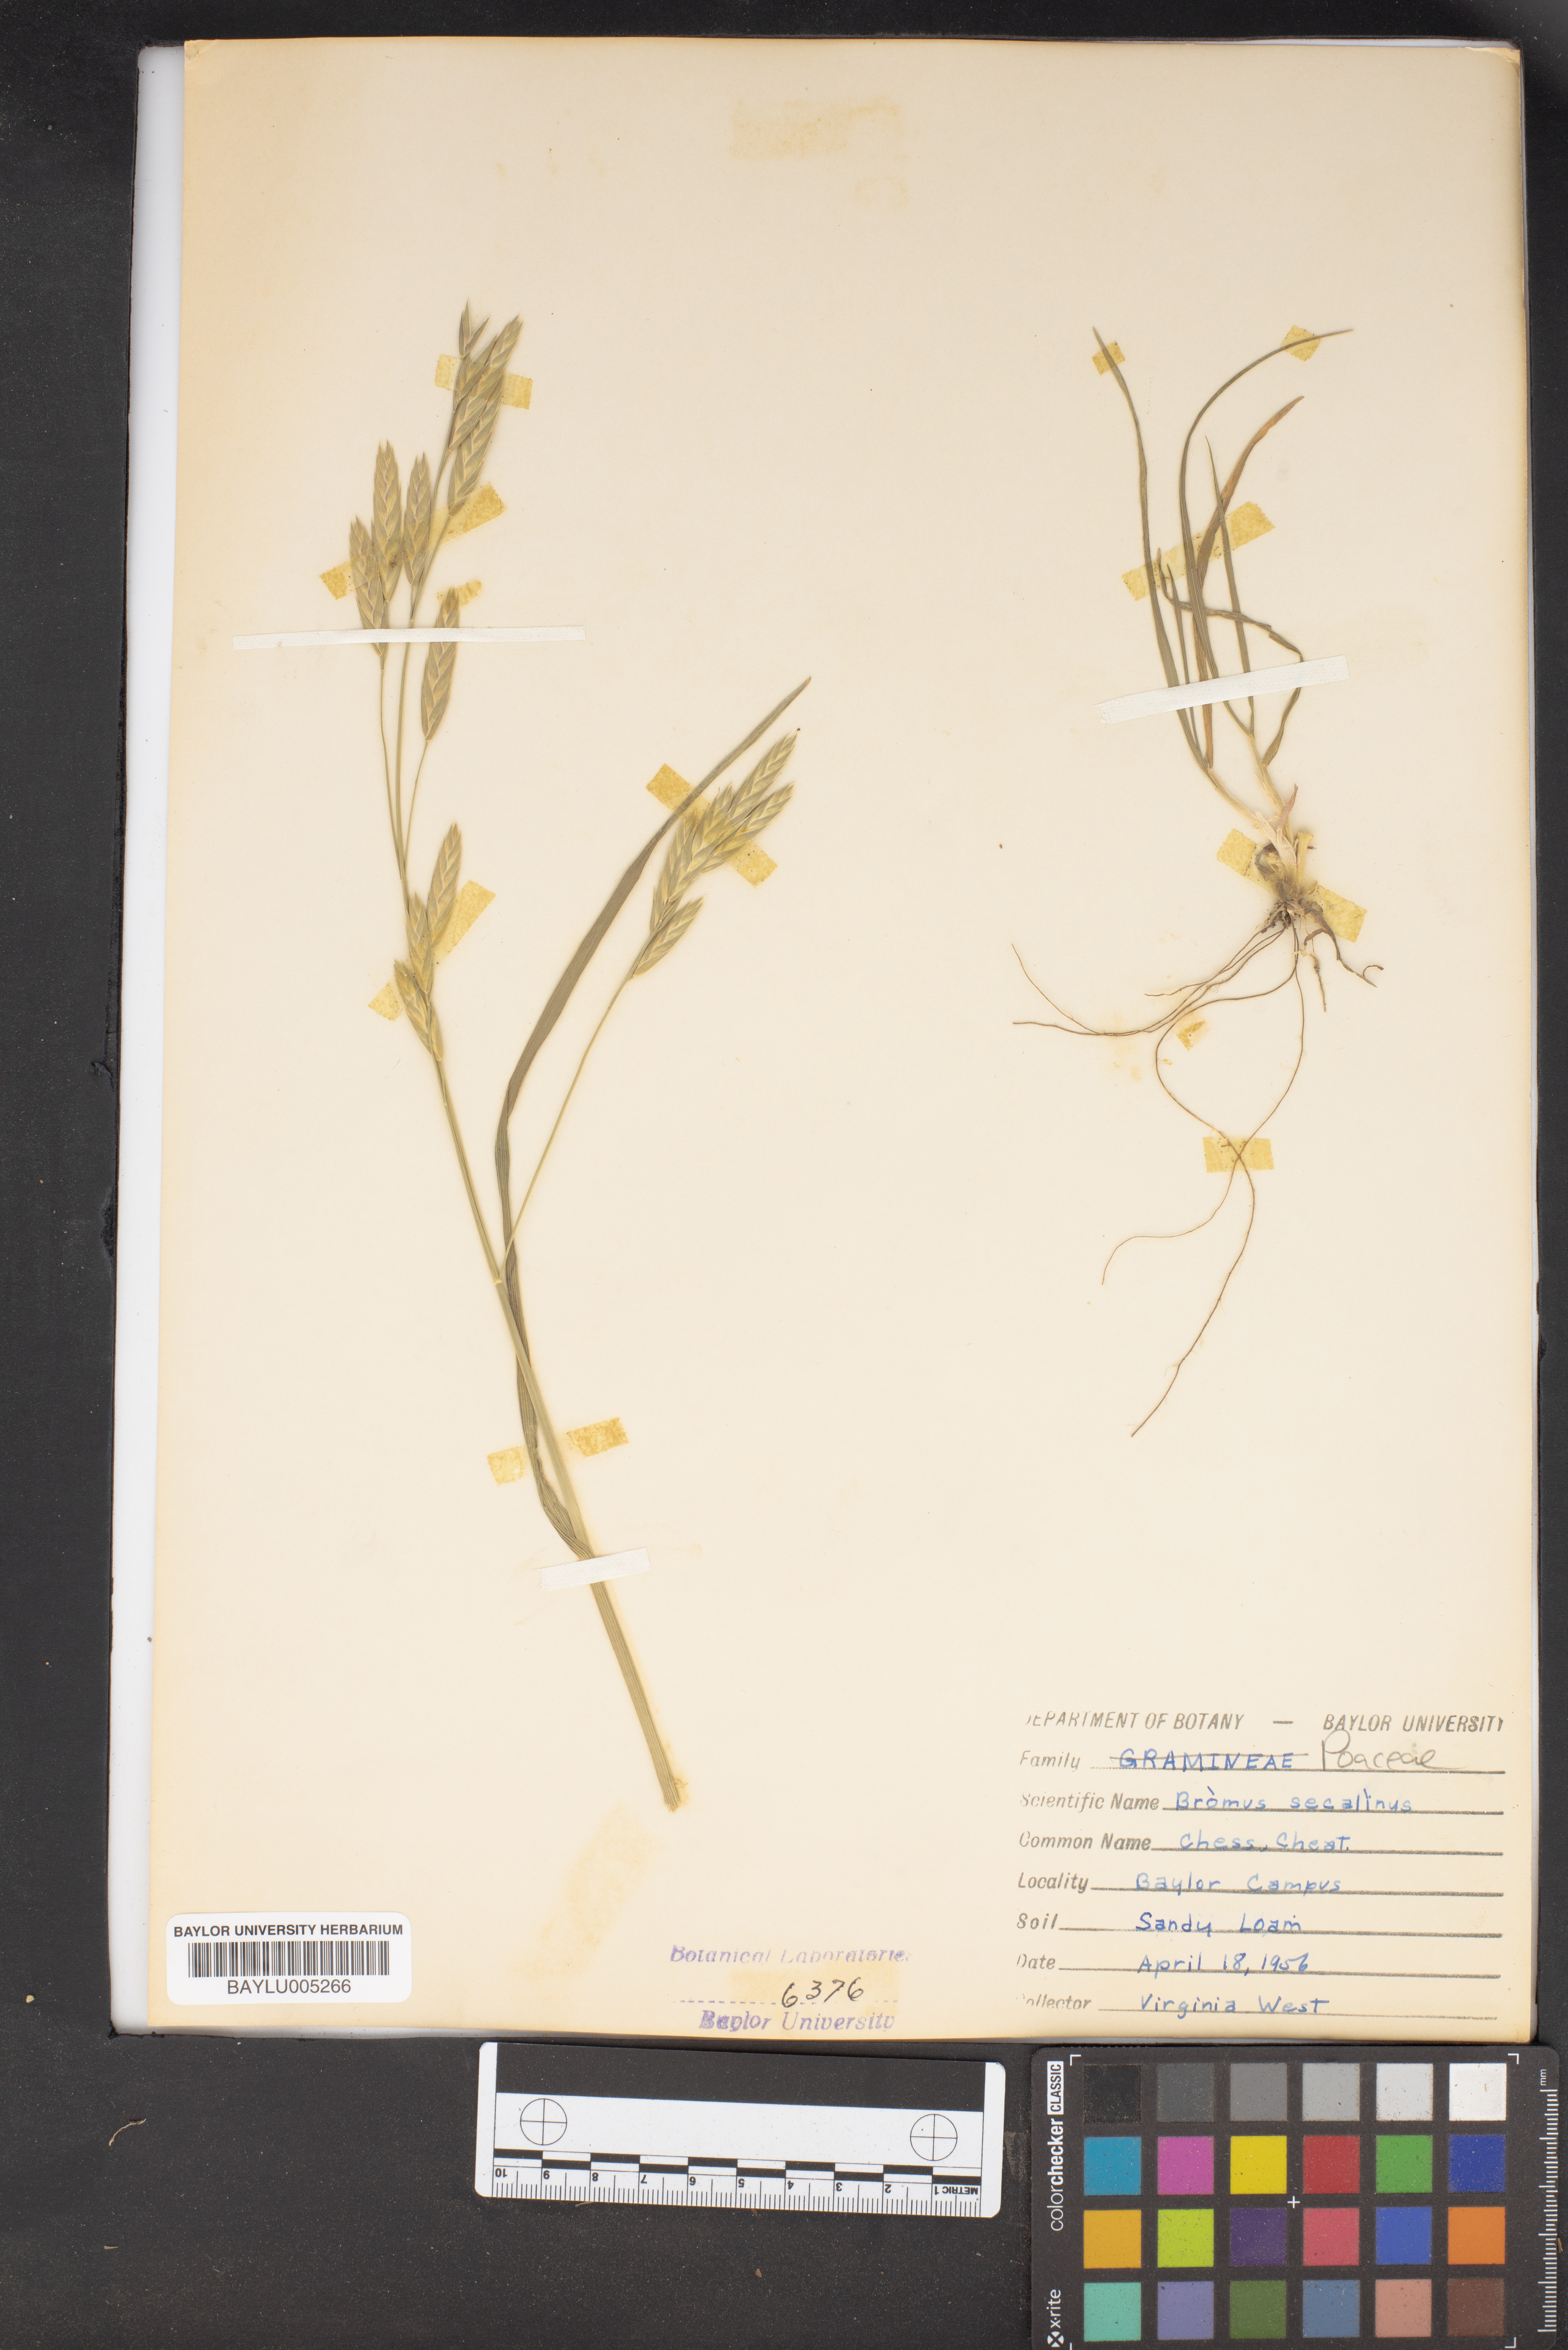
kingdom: Plantae
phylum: Tracheophyta
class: Liliopsida
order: Poales
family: Poaceae
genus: Bromus
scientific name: Bromus secalinus
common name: Rye brome
